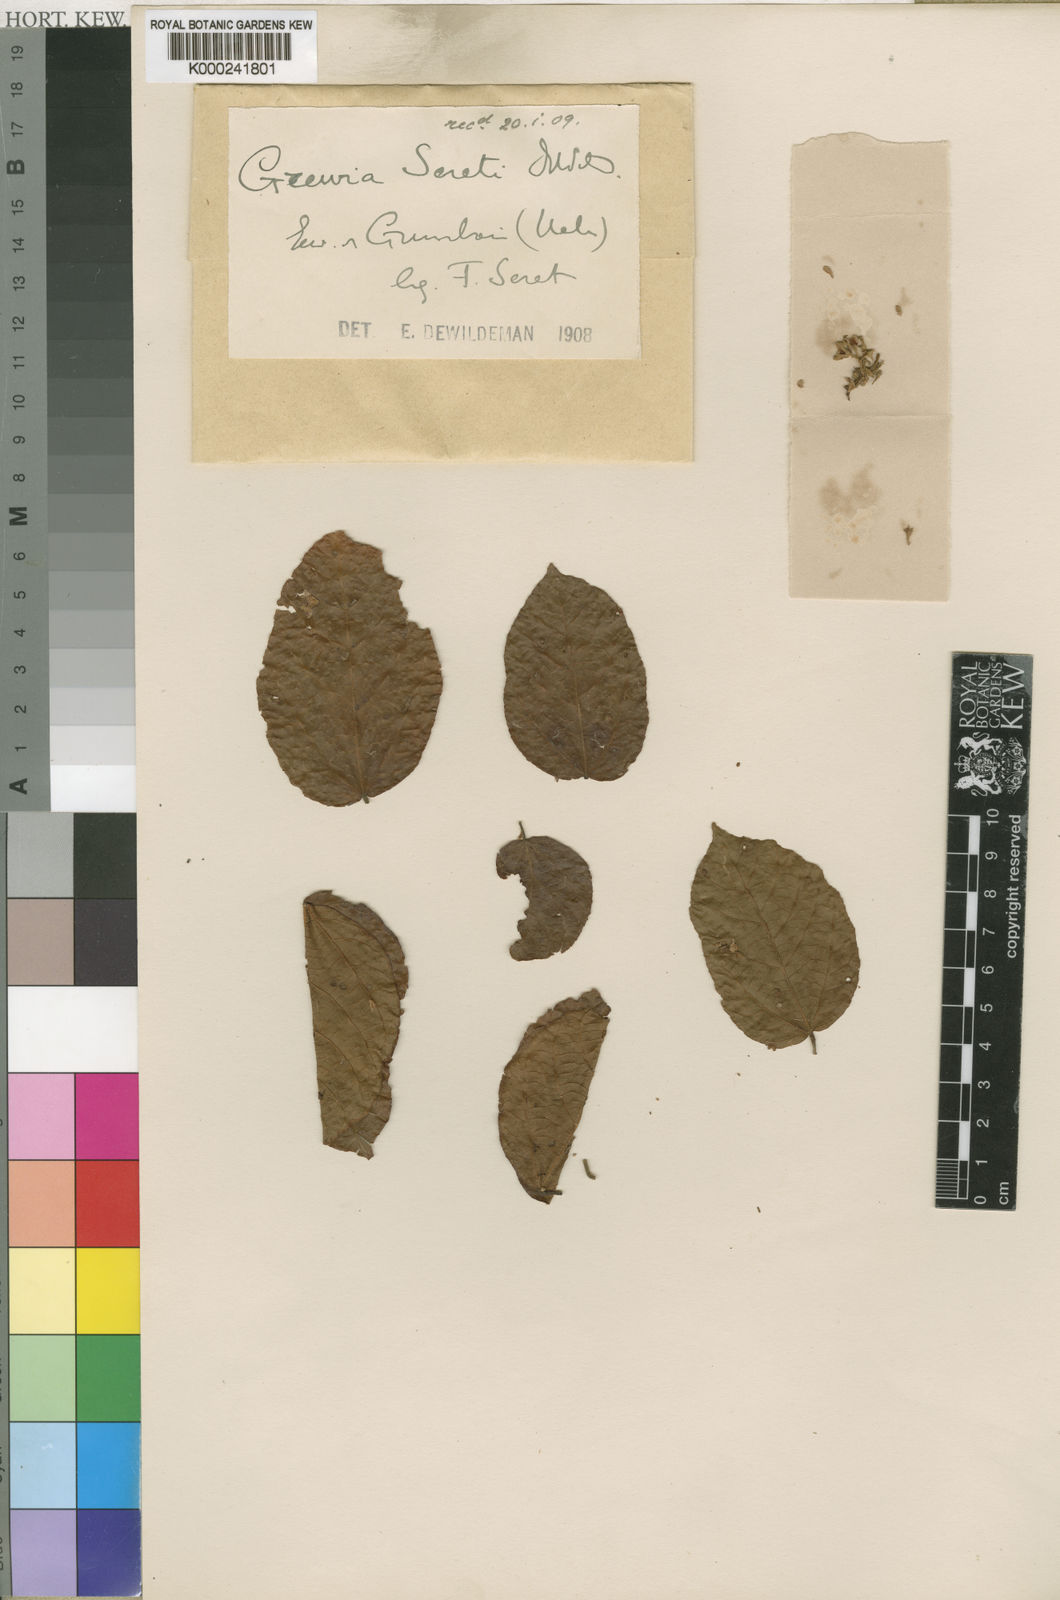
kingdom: Plantae
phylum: Tracheophyta
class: Magnoliopsida
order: Malvales
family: Malvaceae
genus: Microcos
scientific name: Microcos seretii
